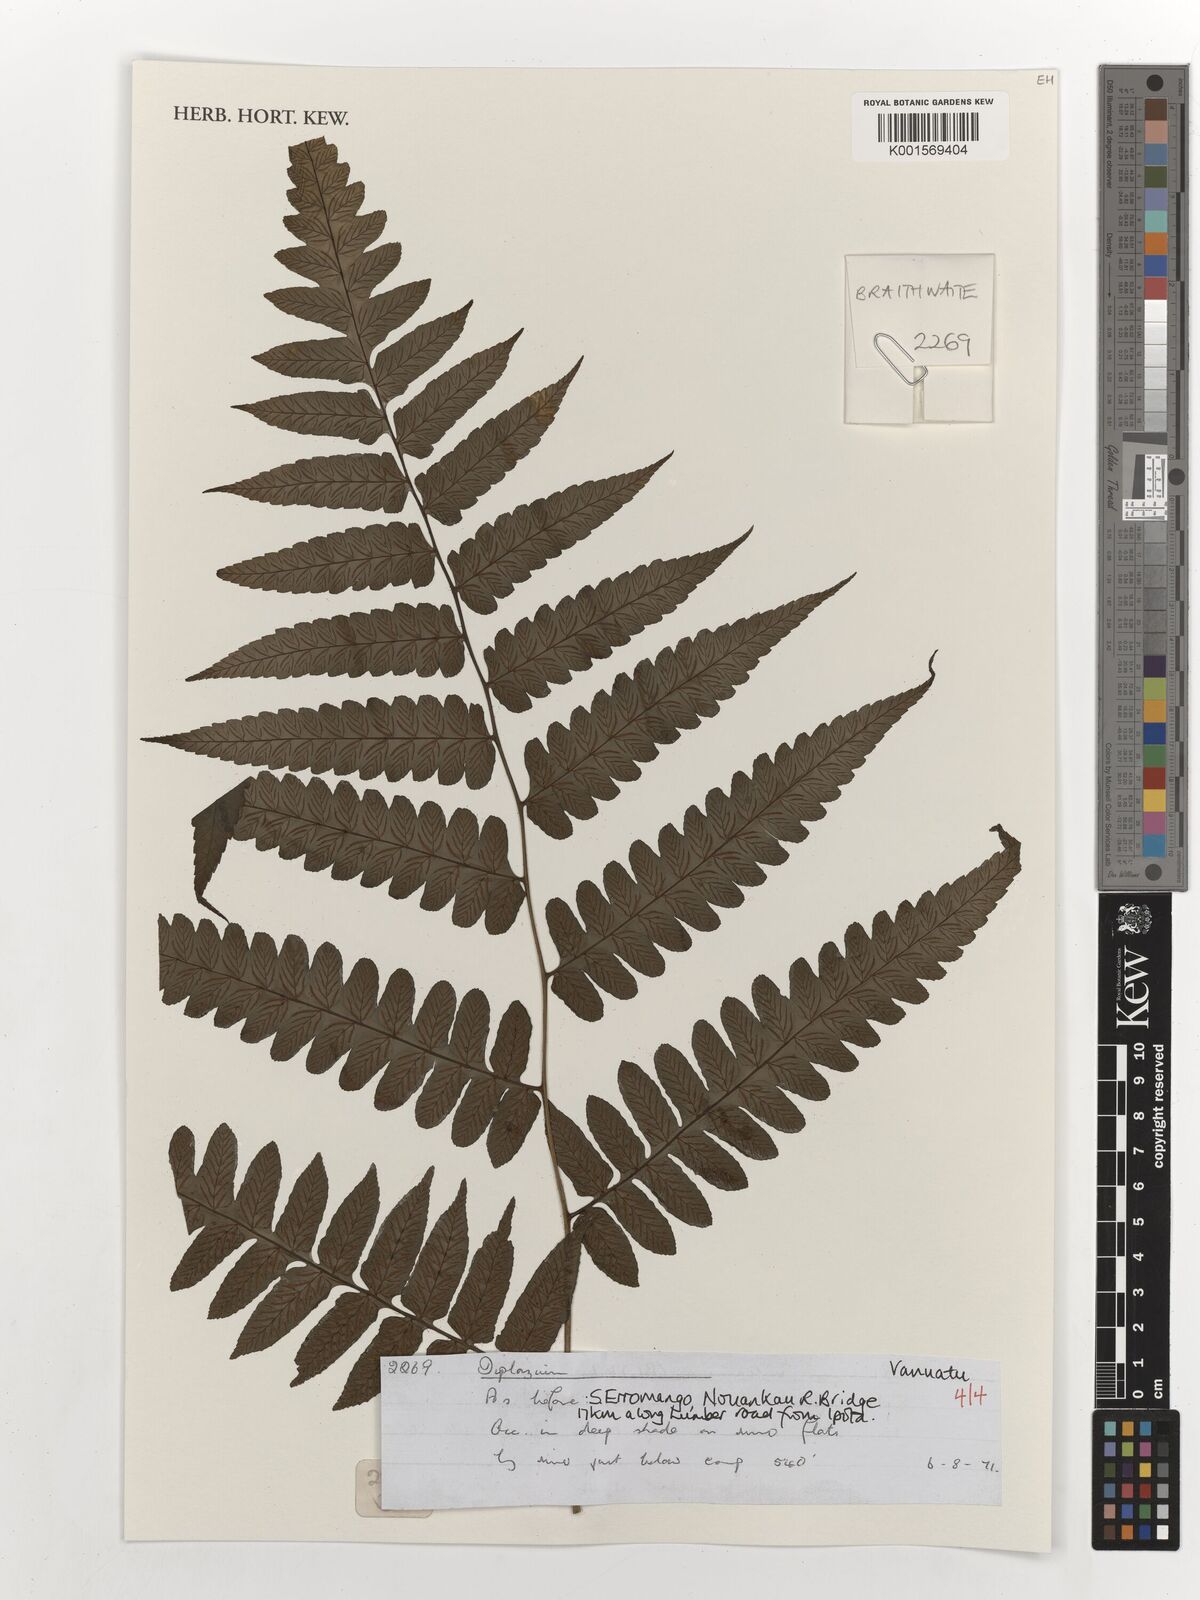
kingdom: Plantae
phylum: Tracheophyta
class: Polypodiopsida
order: Polypodiales
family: Athyriaceae
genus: Diplazium
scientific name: Diplazium
